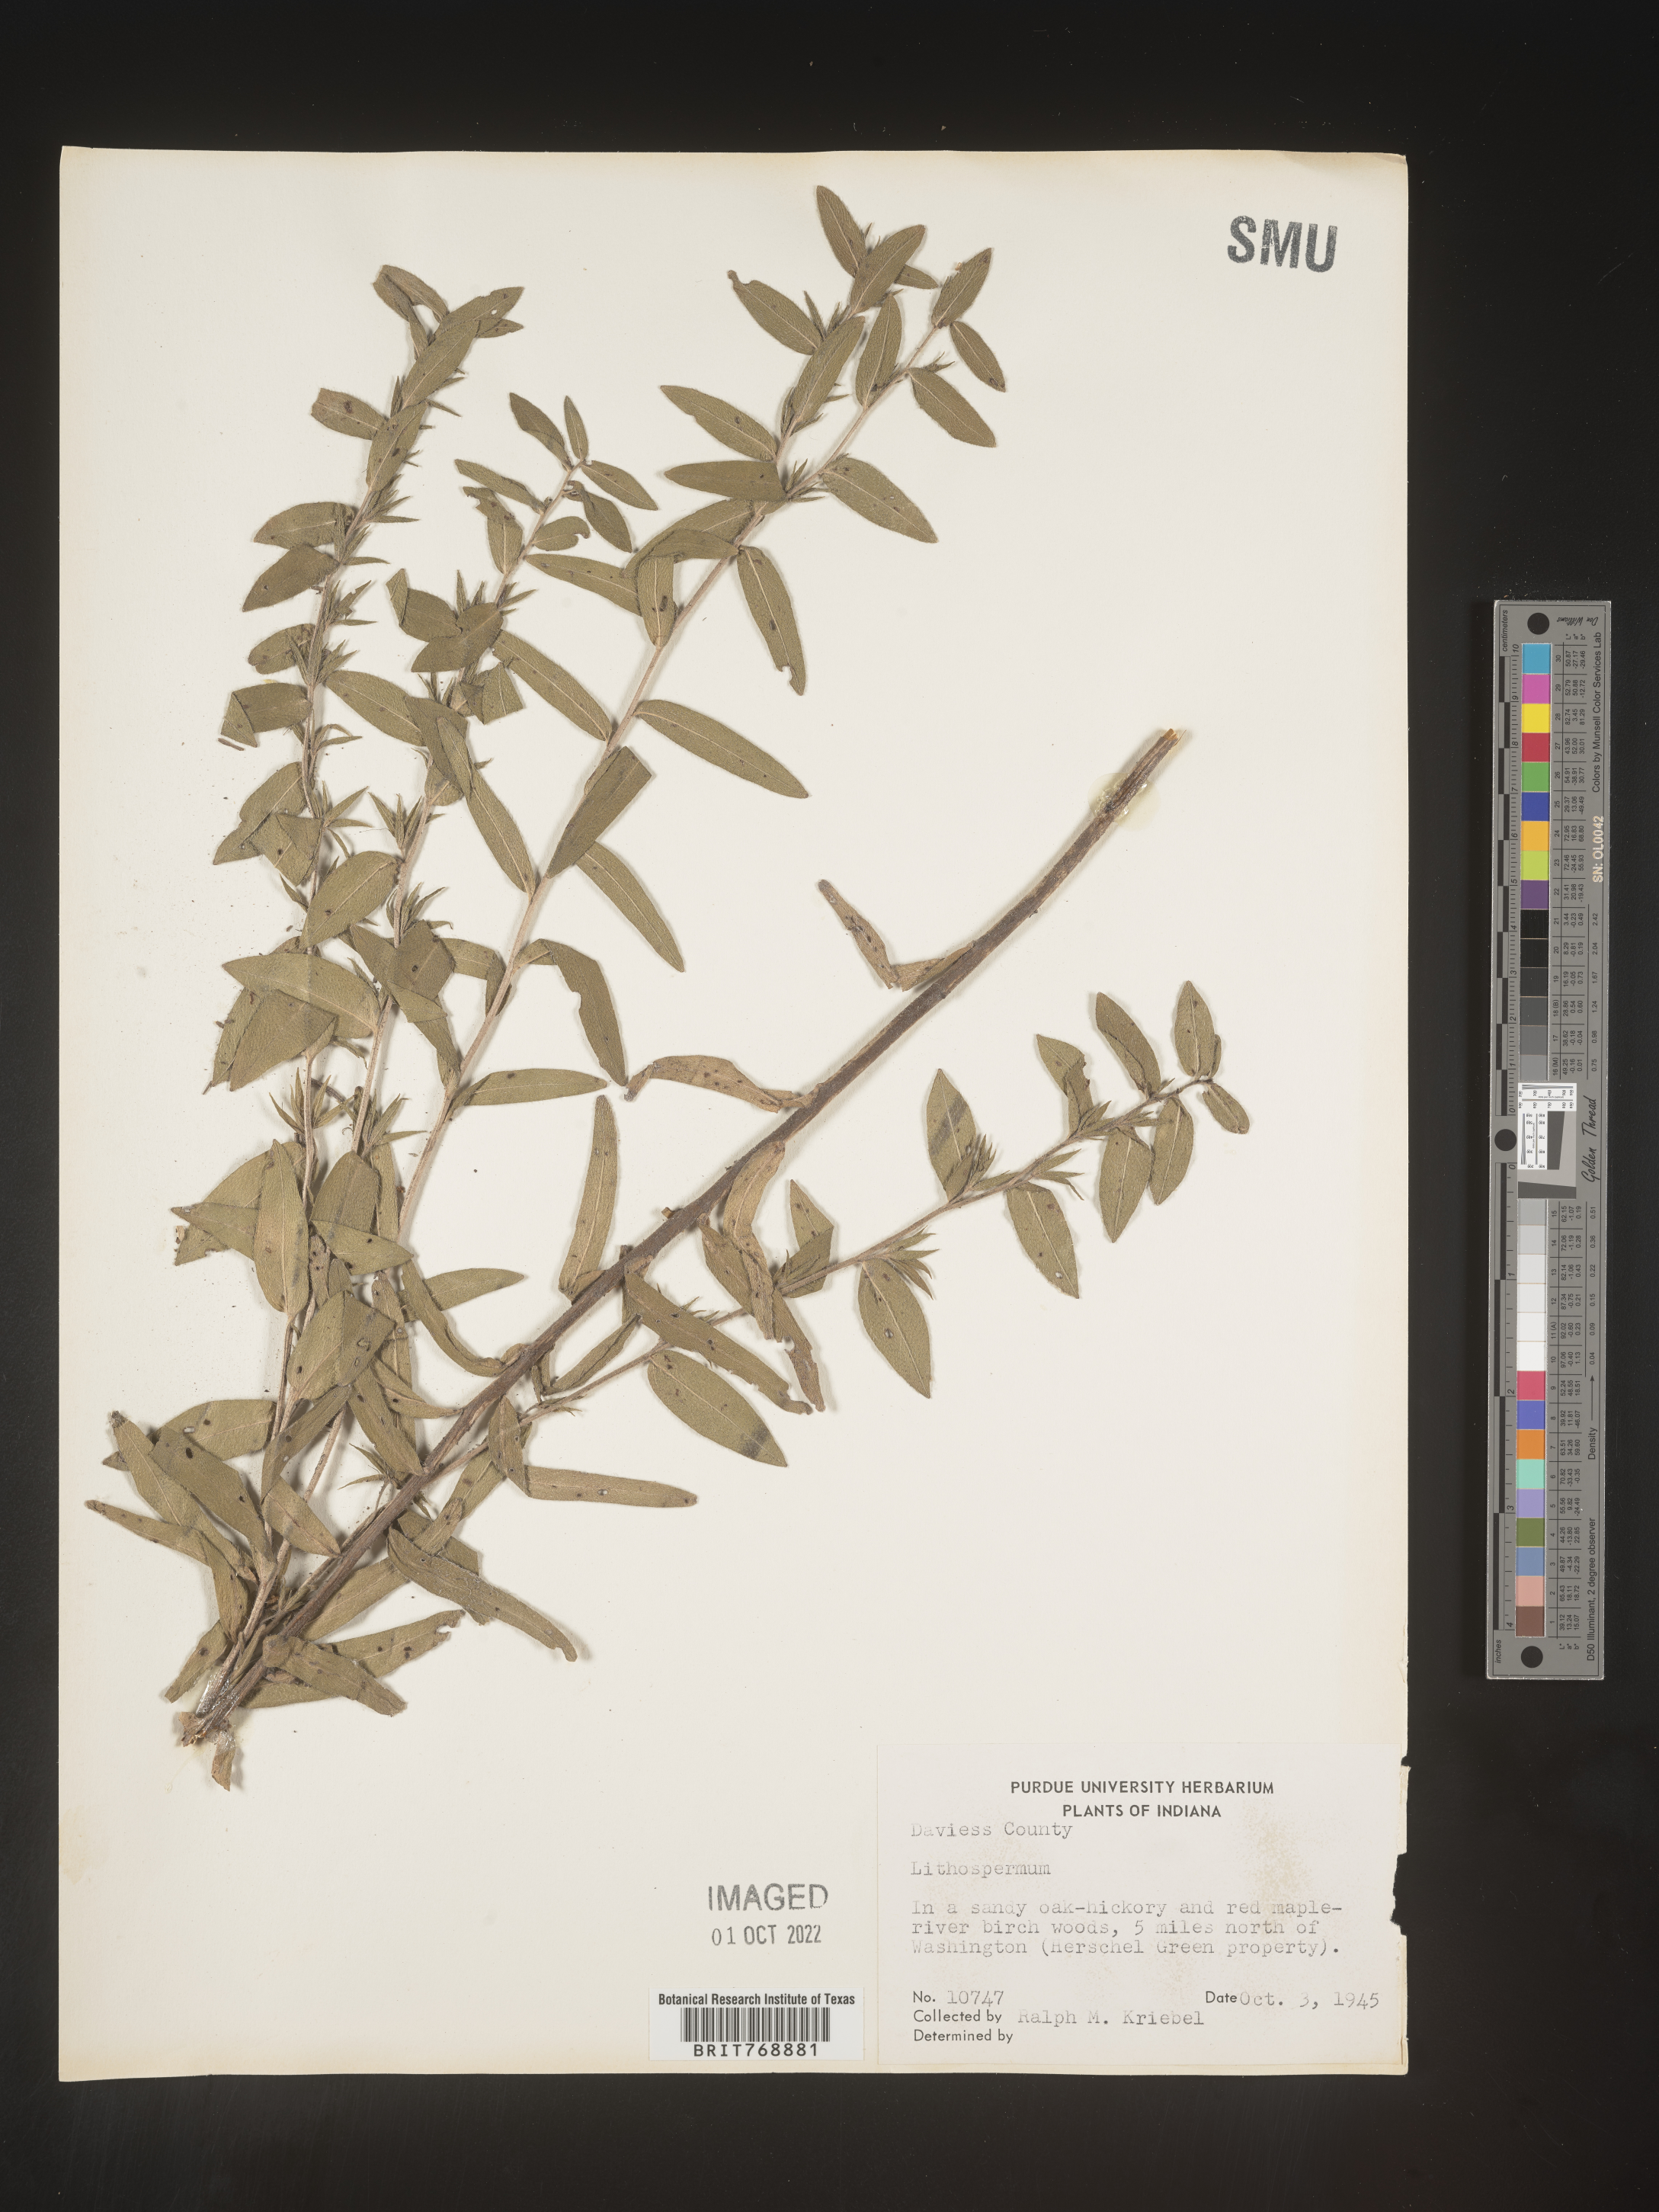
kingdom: Plantae
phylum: Tracheophyta
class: Magnoliopsida
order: Boraginales
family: Boraginaceae
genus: Lithospermum
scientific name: Lithospermum
